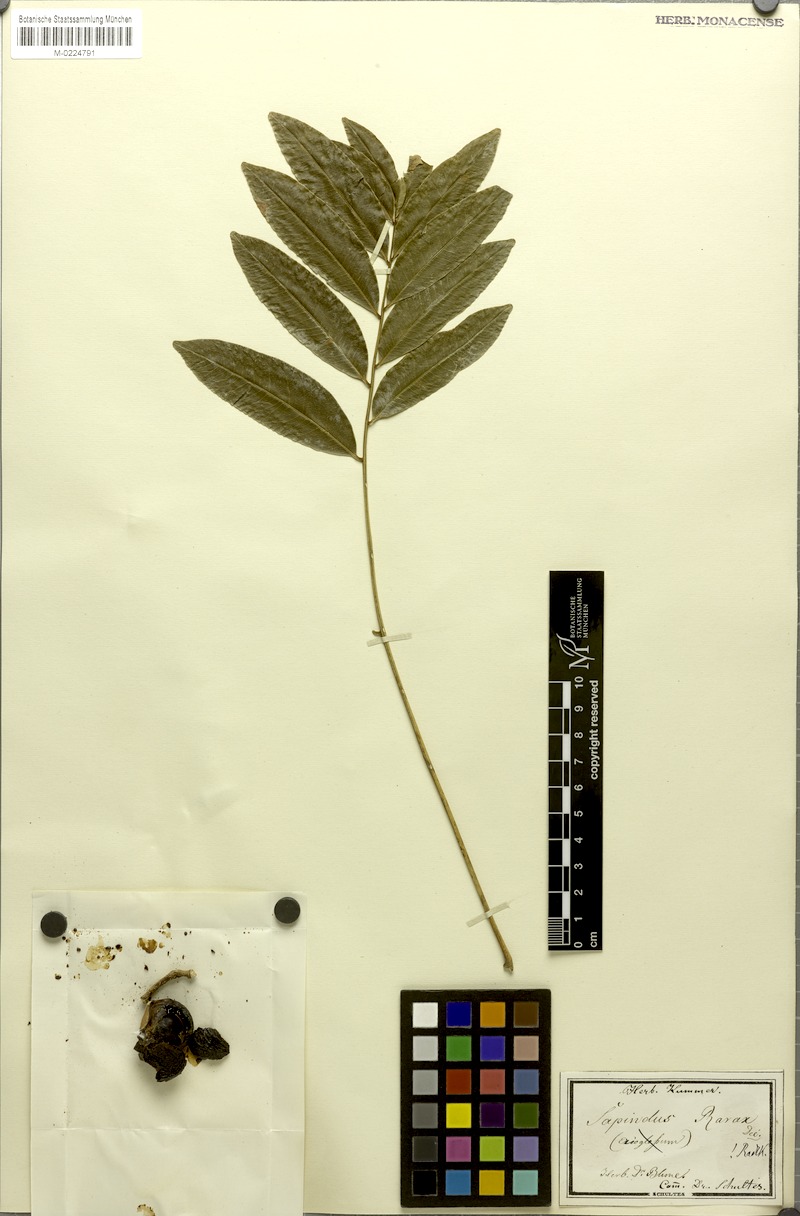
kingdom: Plantae
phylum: Tracheophyta
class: Magnoliopsida
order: Sapindales
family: Sapindaceae
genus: Sapindus
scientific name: Sapindus rarak
